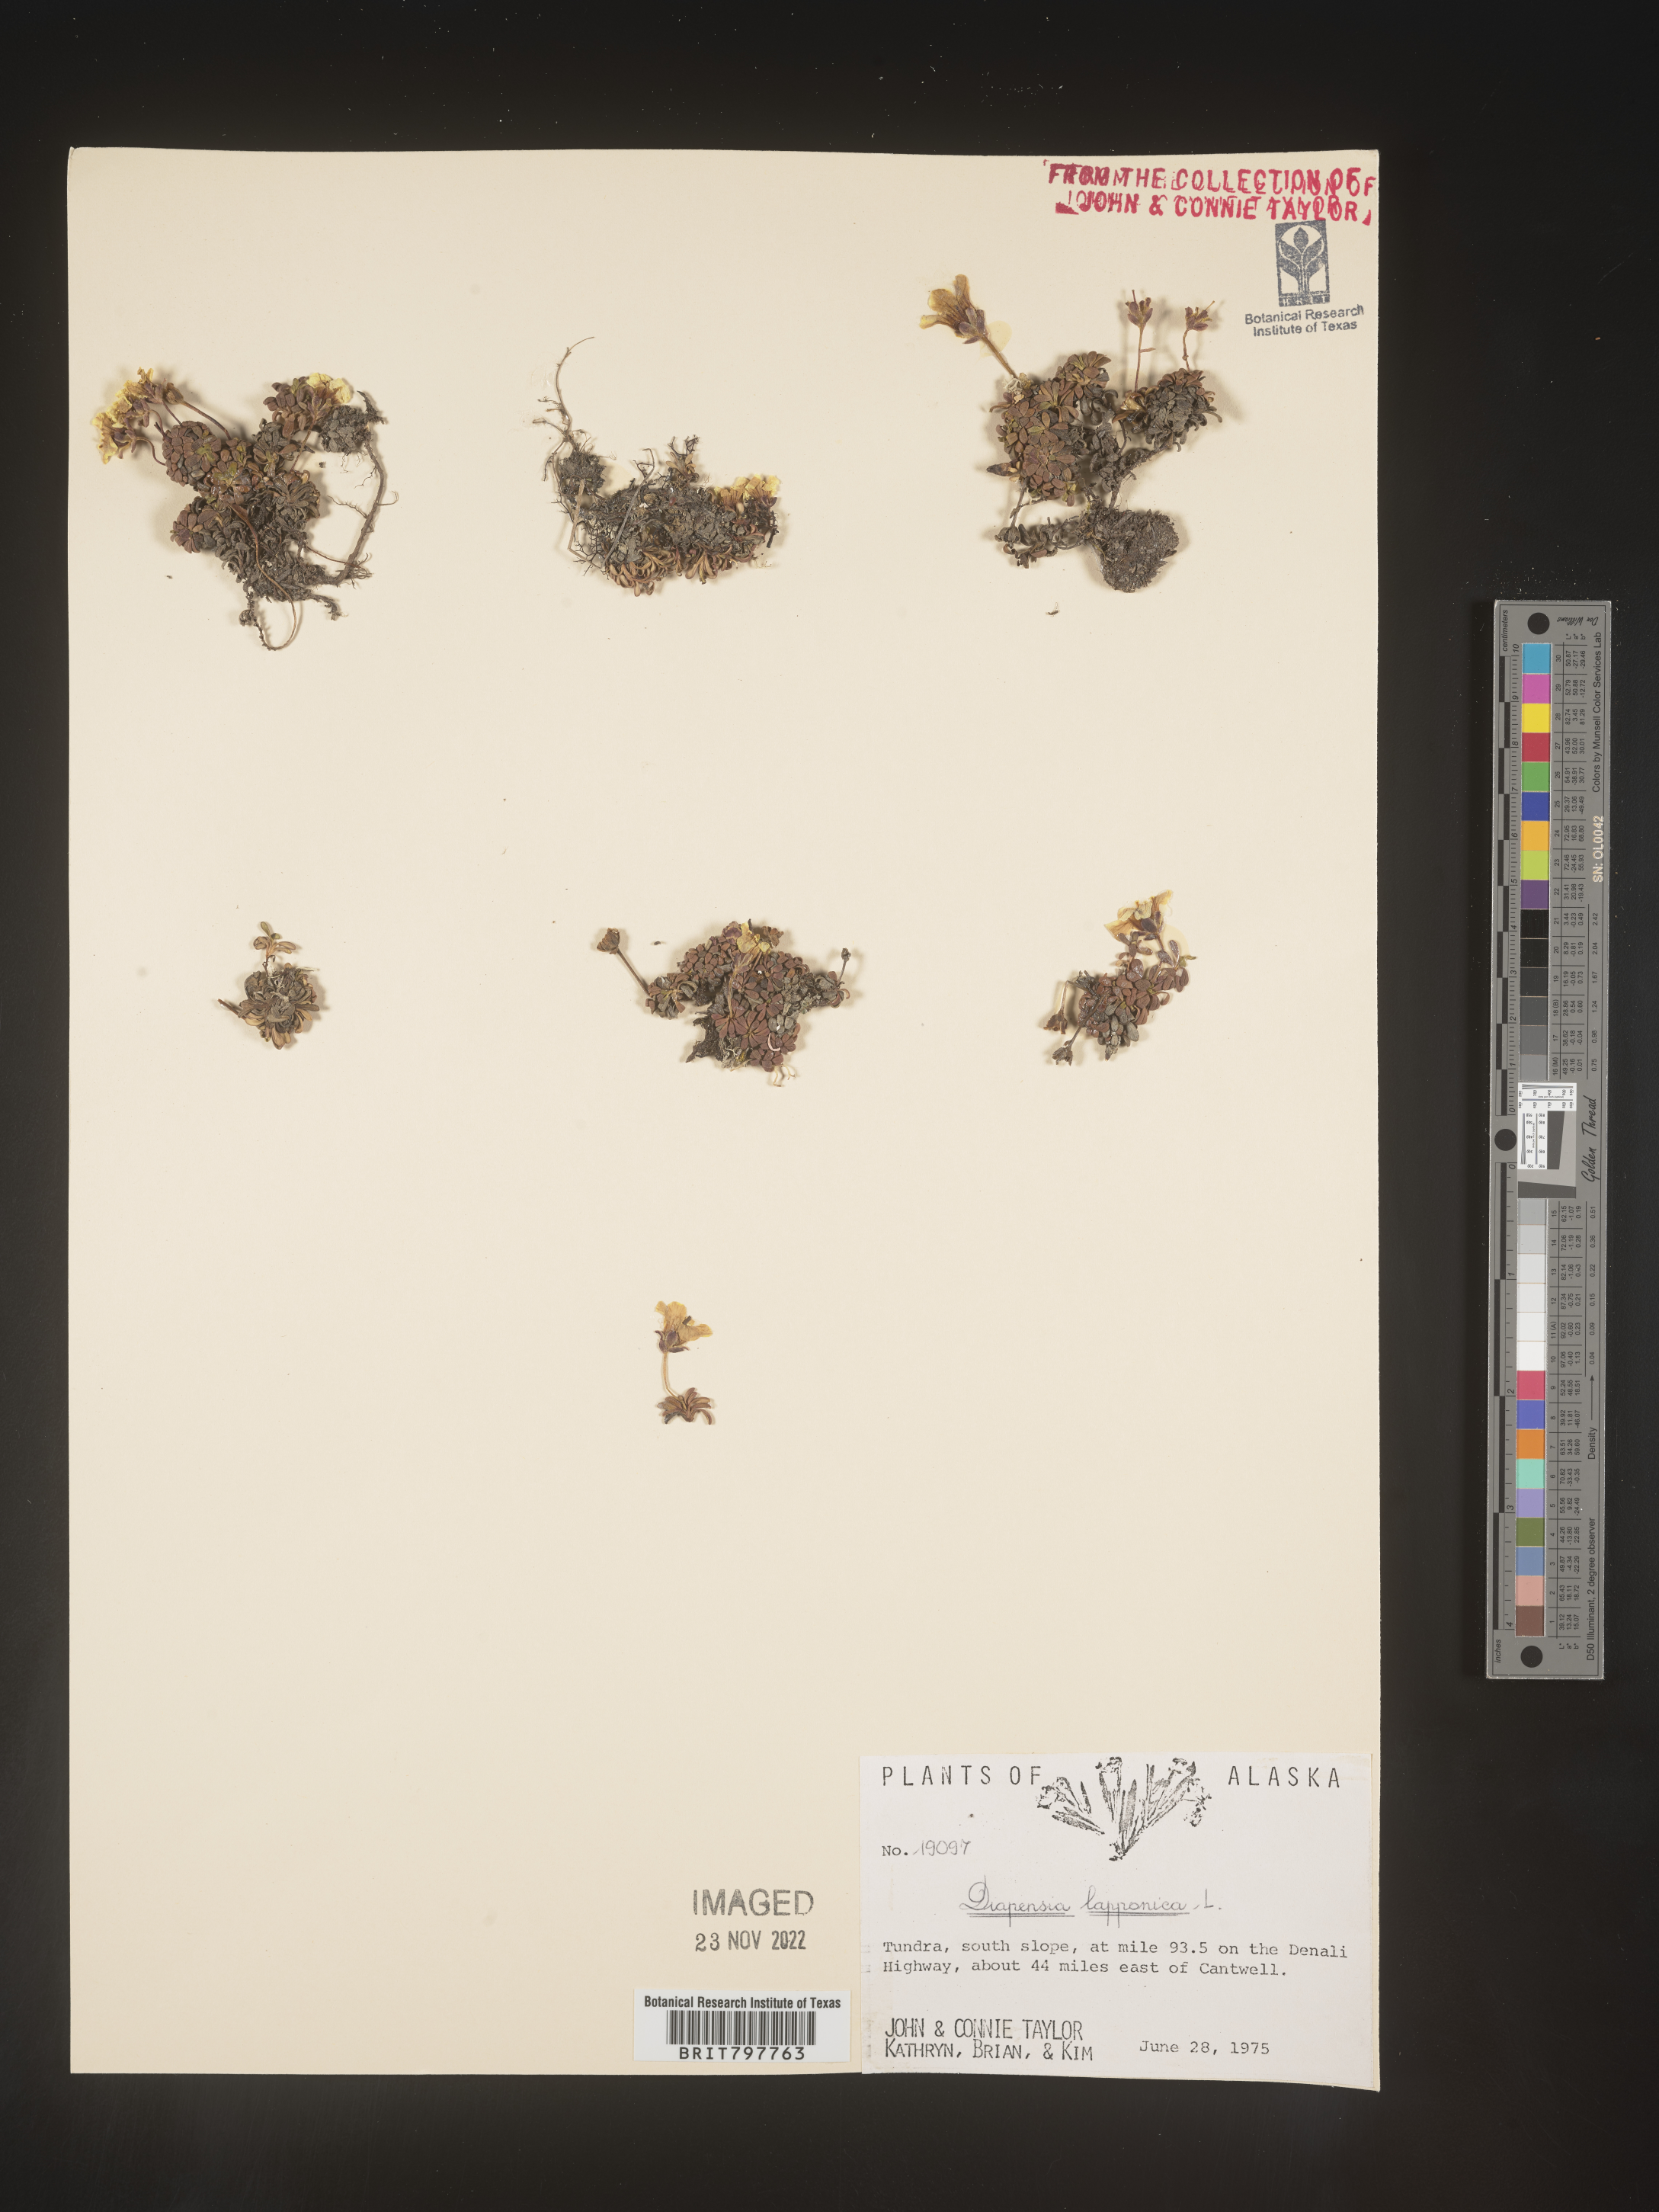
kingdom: Plantae
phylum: Tracheophyta
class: Magnoliopsida
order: Ericales
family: Diapensiaceae
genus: Diapensia
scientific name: Diapensia obovata
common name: Alaska diapensia
